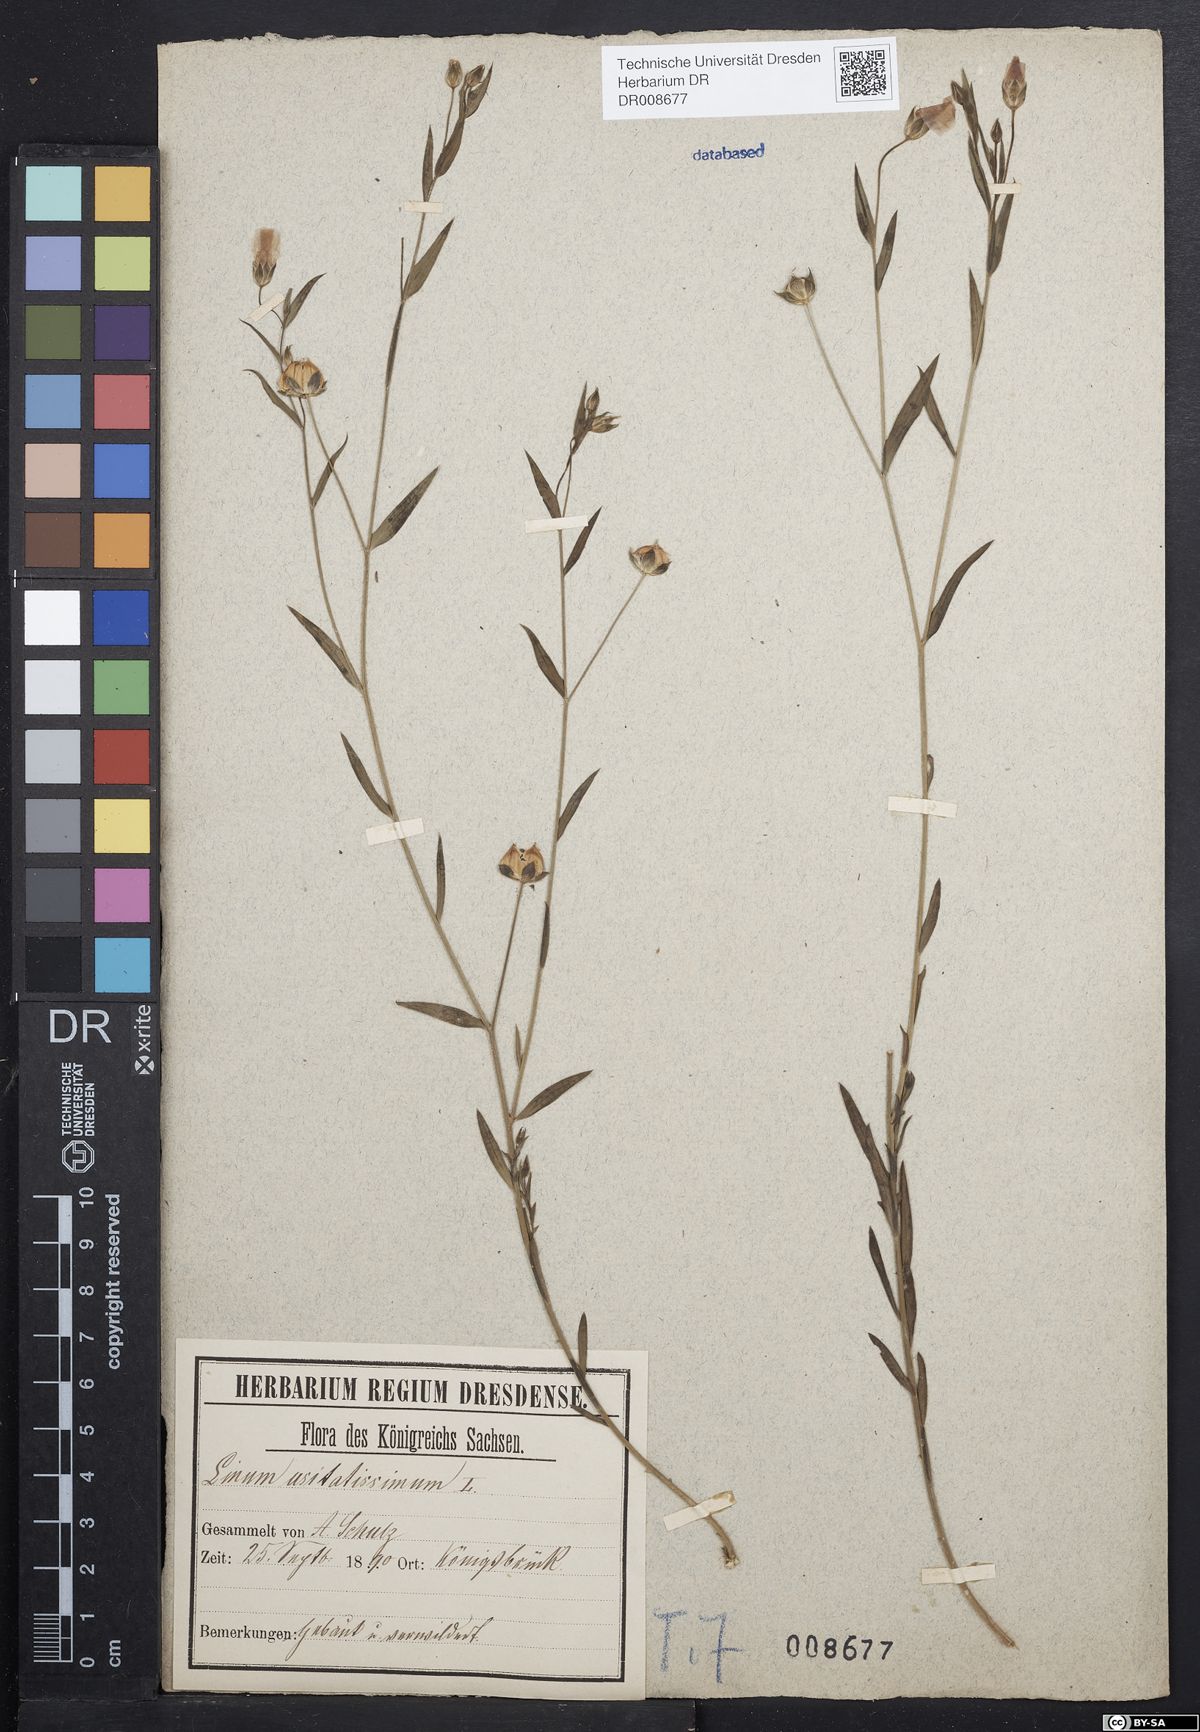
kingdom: Plantae
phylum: Tracheophyta
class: Magnoliopsida
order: Malpighiales
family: Linaceae
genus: Linum
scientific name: Linum usitatissimum
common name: Flax
